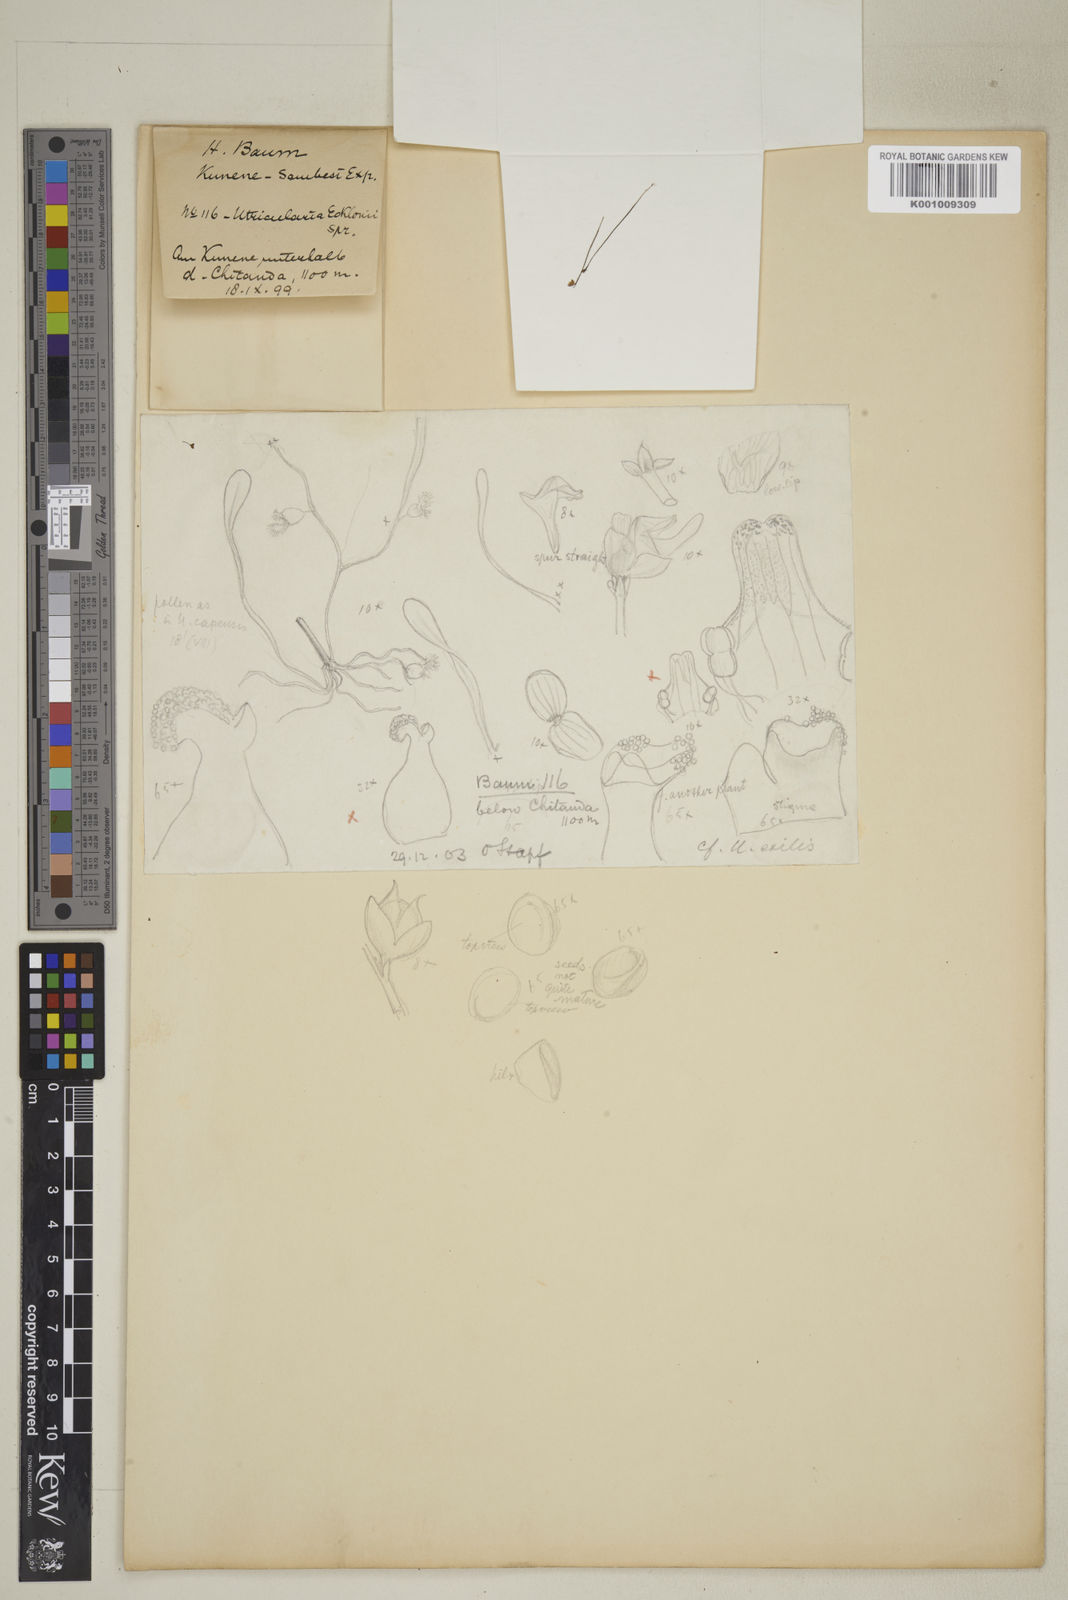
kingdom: Plantae
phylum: Tracheophyta
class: Magnoliopsida
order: Lamiales
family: Lentibulariaceae
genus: Utricularia
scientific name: Utricularia arenaria
